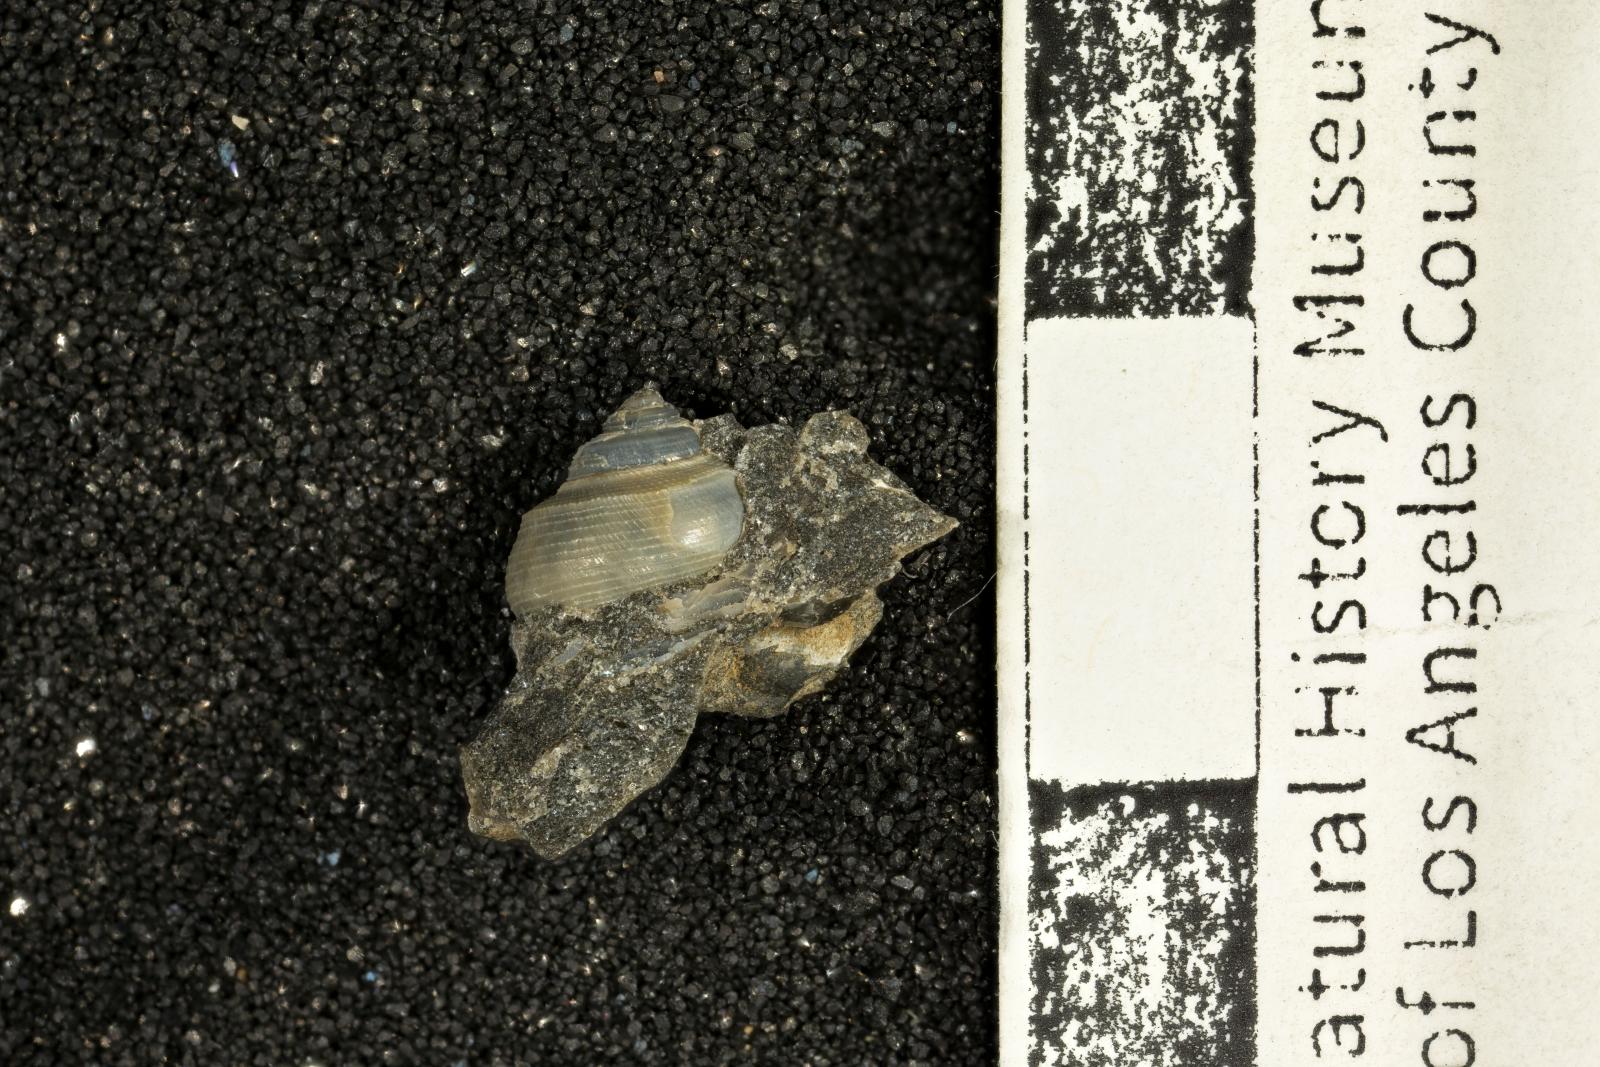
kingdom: Animalia
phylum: Mollusca
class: Bivalvia
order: Ostreida
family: Pteriidae
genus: Atira
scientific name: Atira Angaria ornatissima
